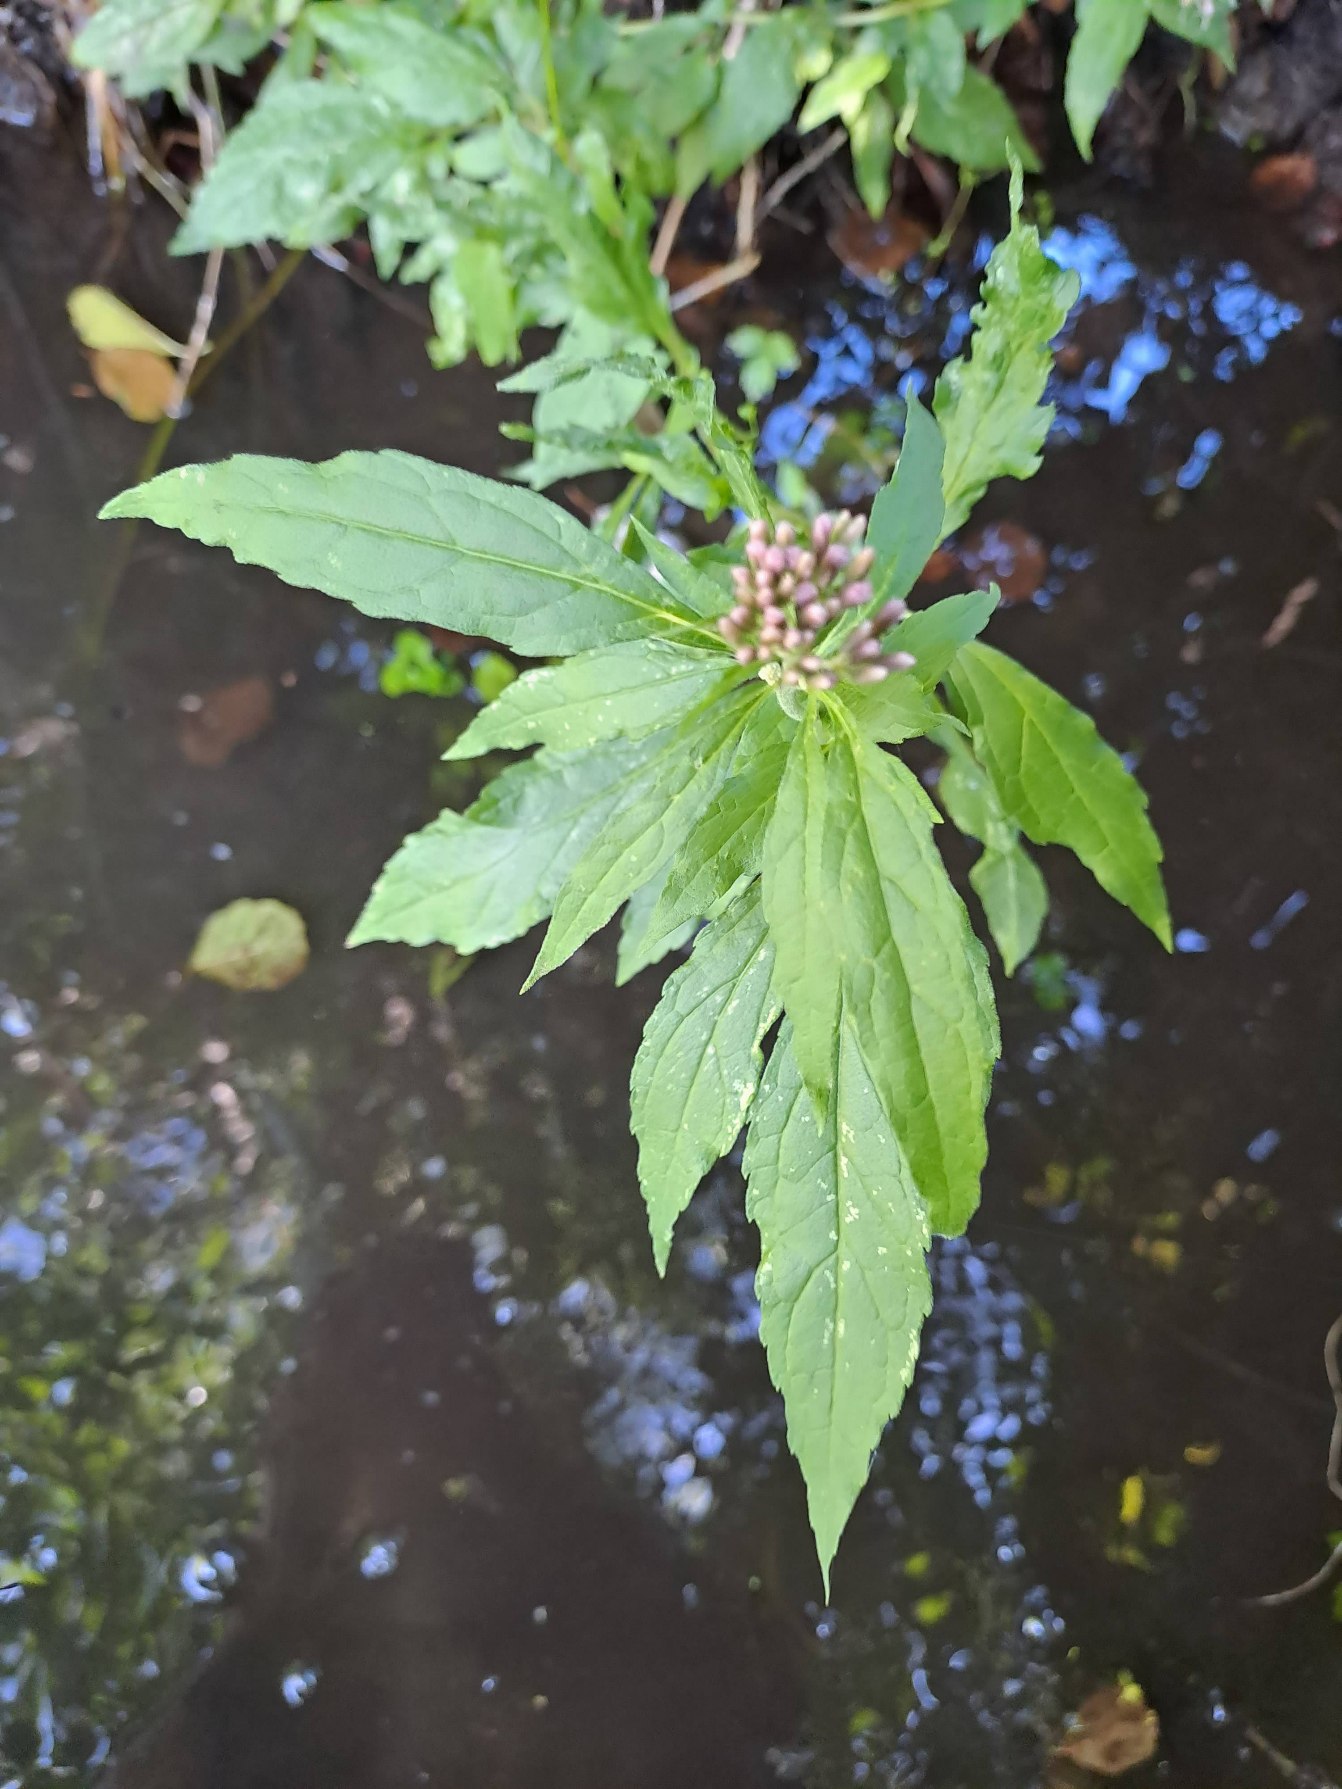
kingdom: Plantae
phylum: Tracheophyta
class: Magnoliopsida
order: Asterales
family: Asteraceae
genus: Eupatorium
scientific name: Eupatorium cannabinum
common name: Hjortetrøst
